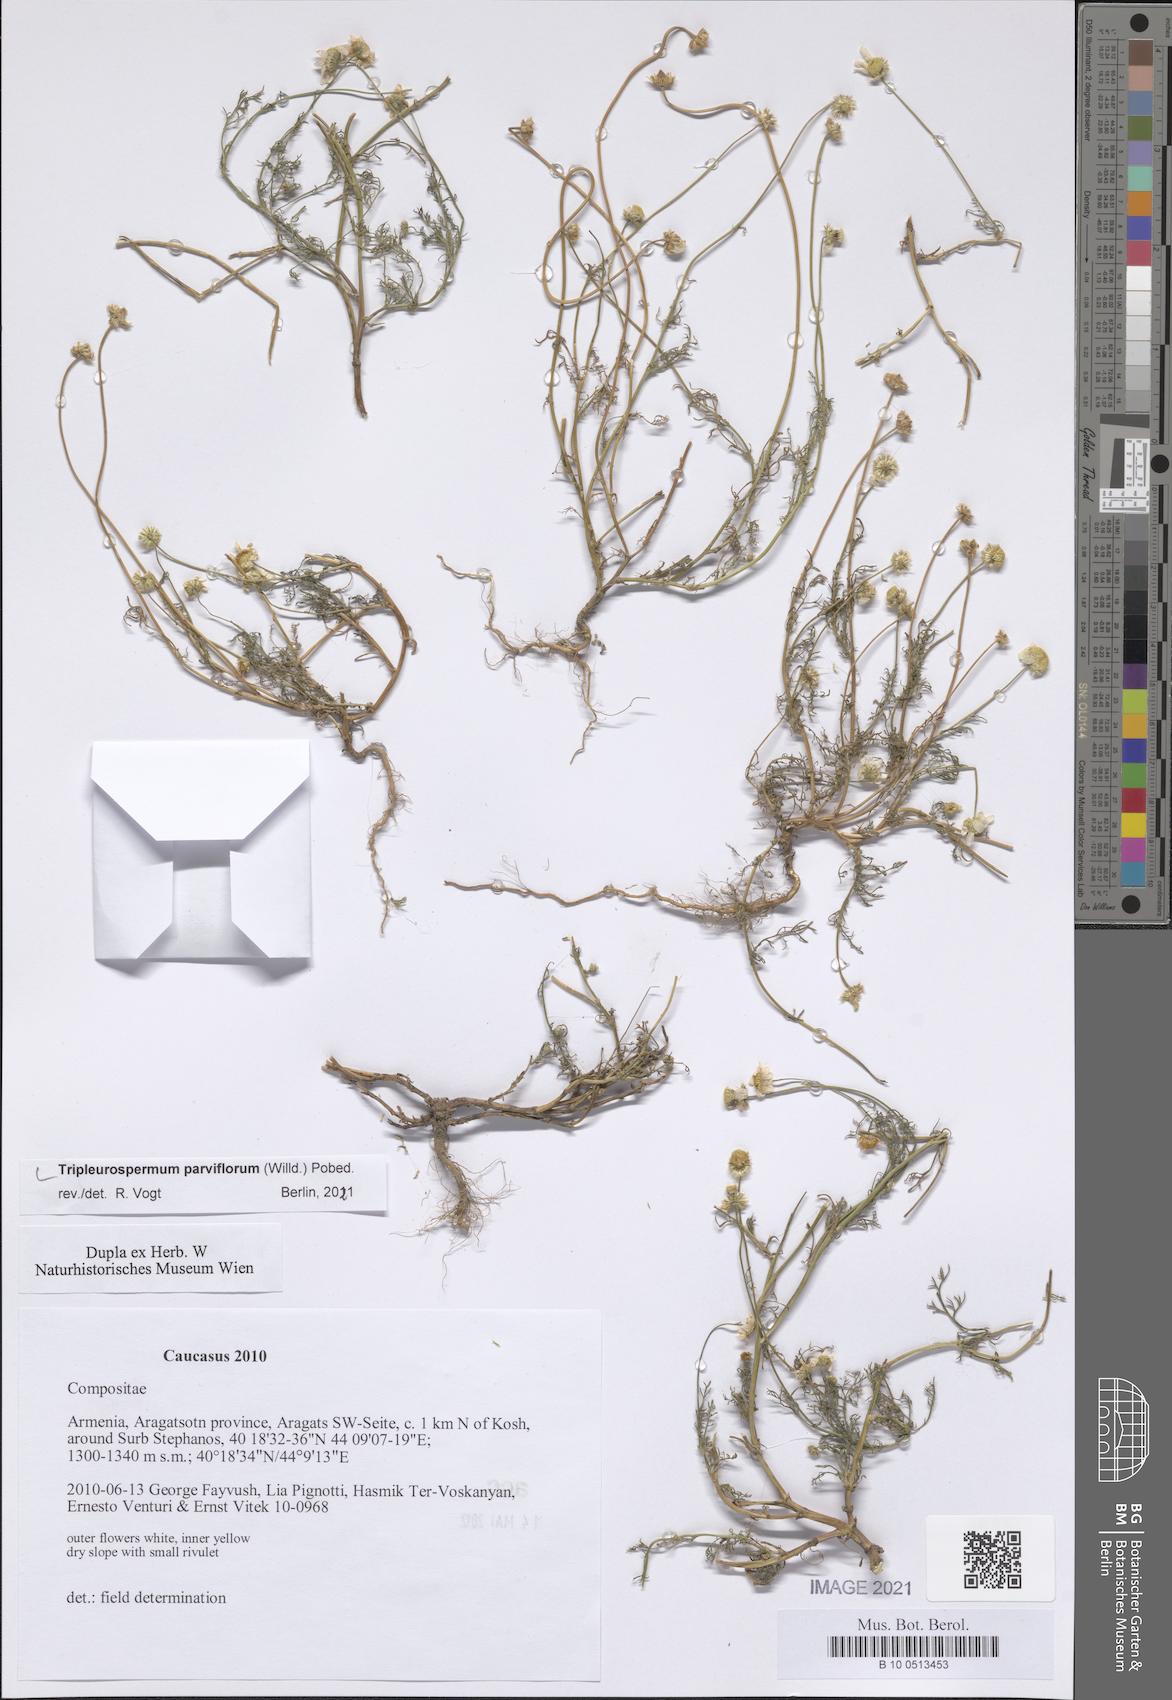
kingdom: Plantae
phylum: Tracheophyta
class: Magnoliopsida
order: Asterales
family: Asteraceae
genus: Tripleurospermum
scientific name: Tripleurospermum parviflorum
